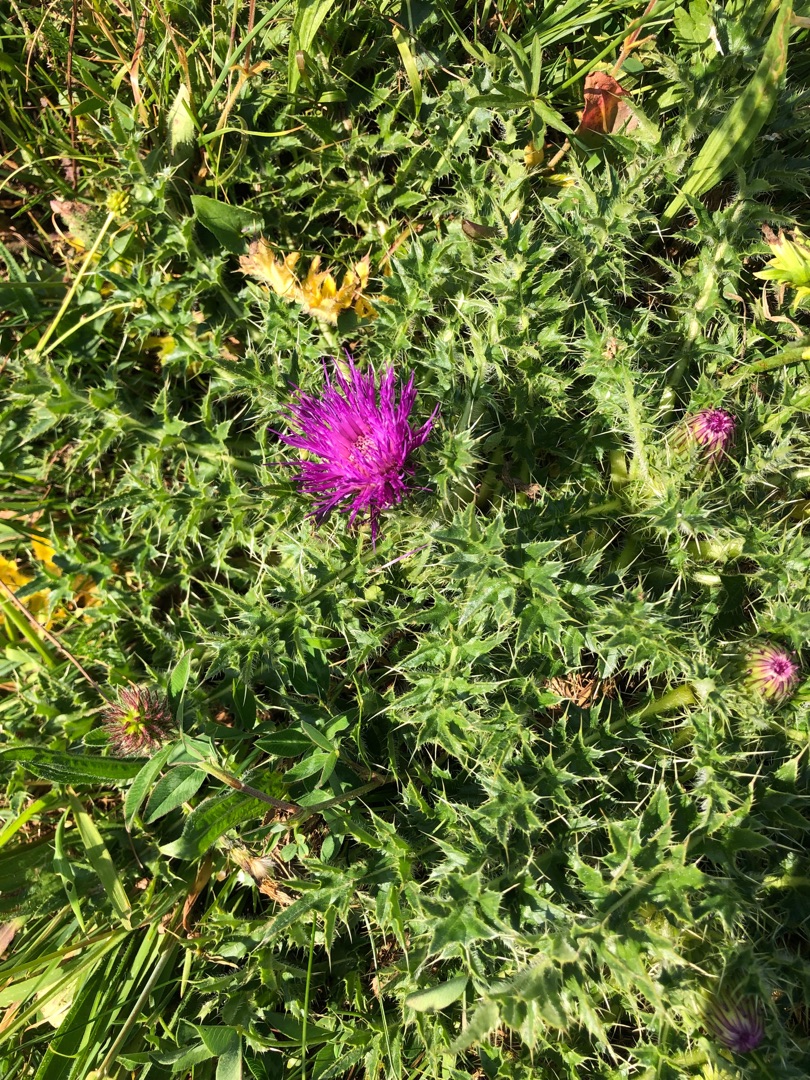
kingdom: Plantae
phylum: Tracheophyta
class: Magnoliopsida
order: Asterales
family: Asteraceae
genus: Cirsium
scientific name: Cirsium acaule
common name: Lav tidsel
